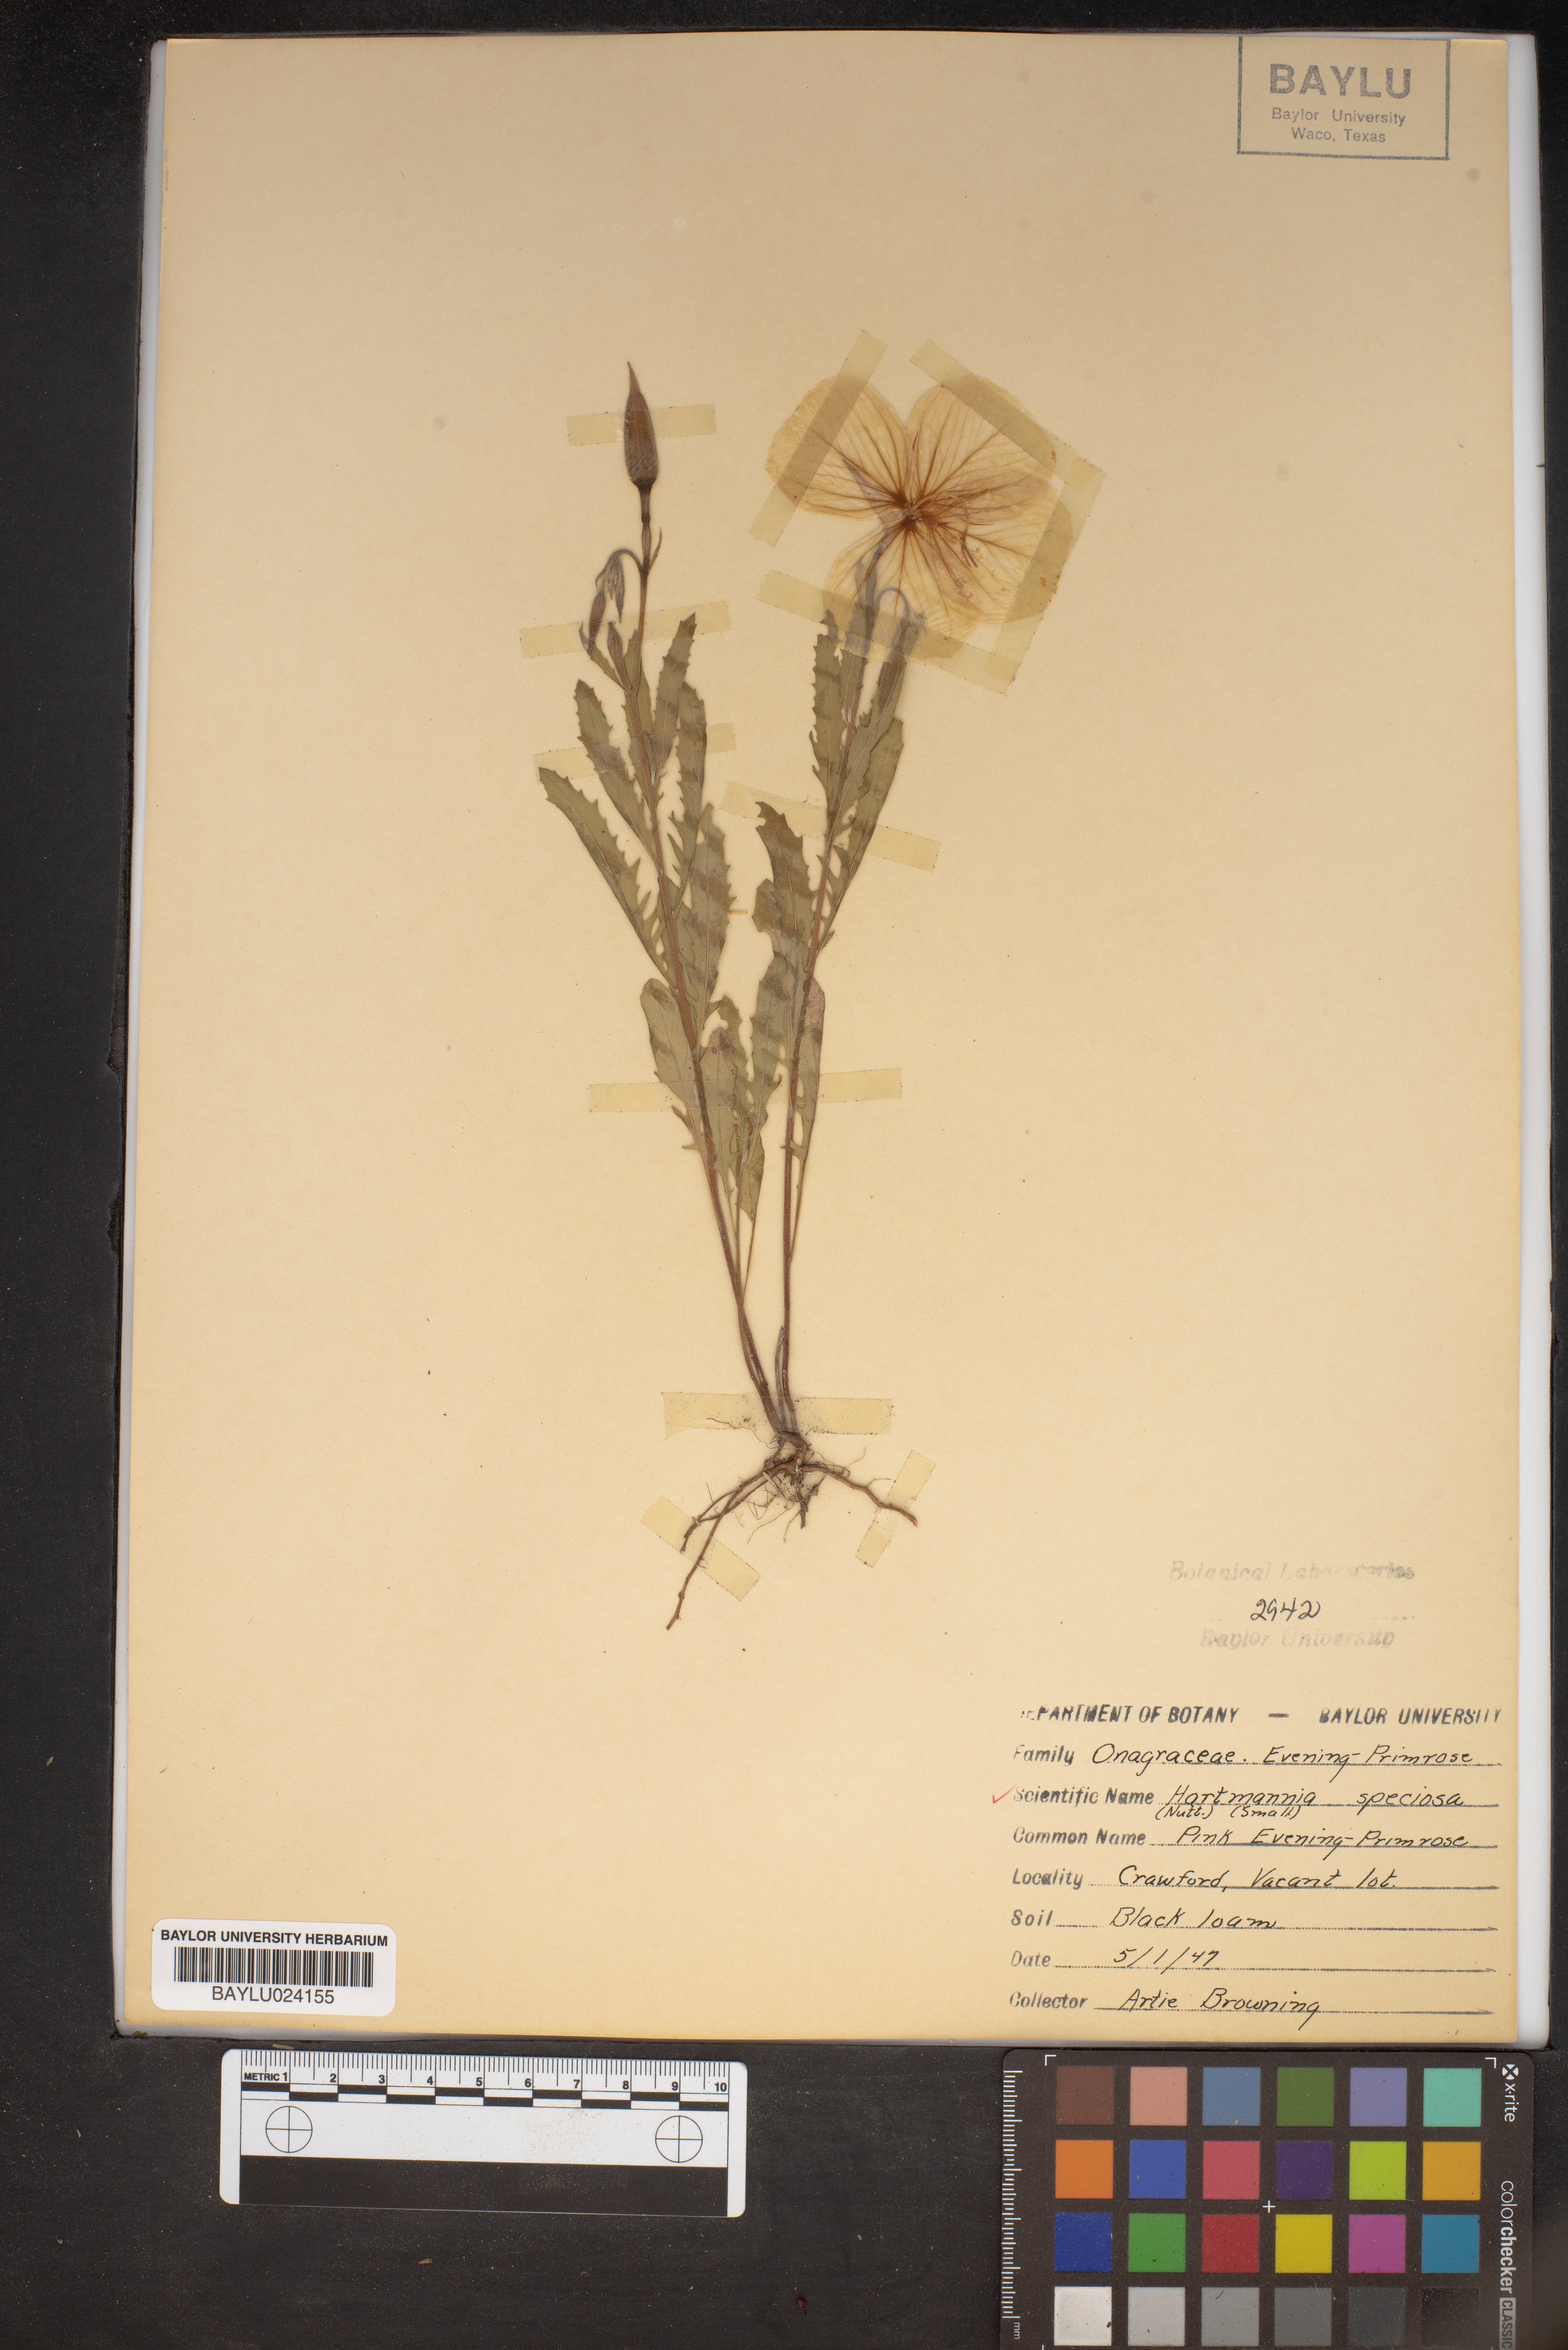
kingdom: Plantae
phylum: Tracheophyta
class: Magnoliopsida
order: Myrtales
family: Onagraceae
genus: Oenothera
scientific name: Oenothera speciosa
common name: White evening-primrose
